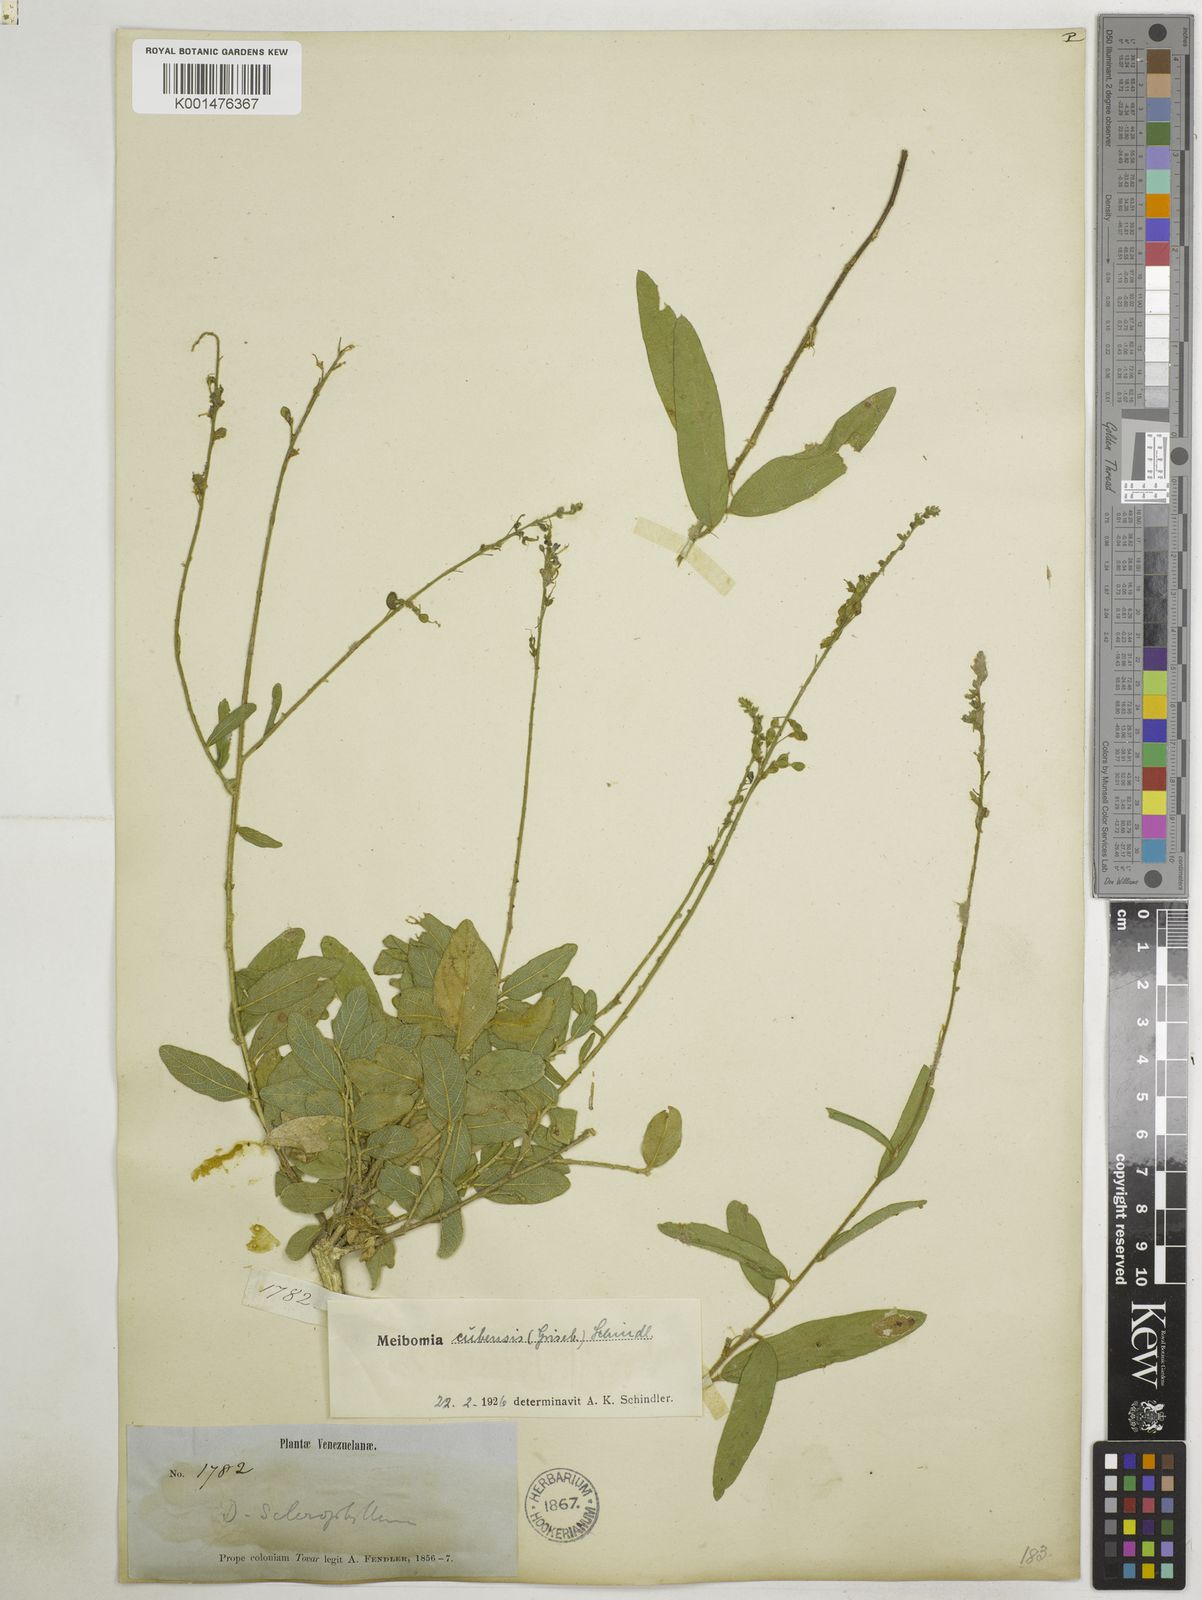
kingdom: Plantae
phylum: Tracheophyta
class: Magnoliopsida
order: Fabales
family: Fabaceae
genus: Desmodium
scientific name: Desmodium
